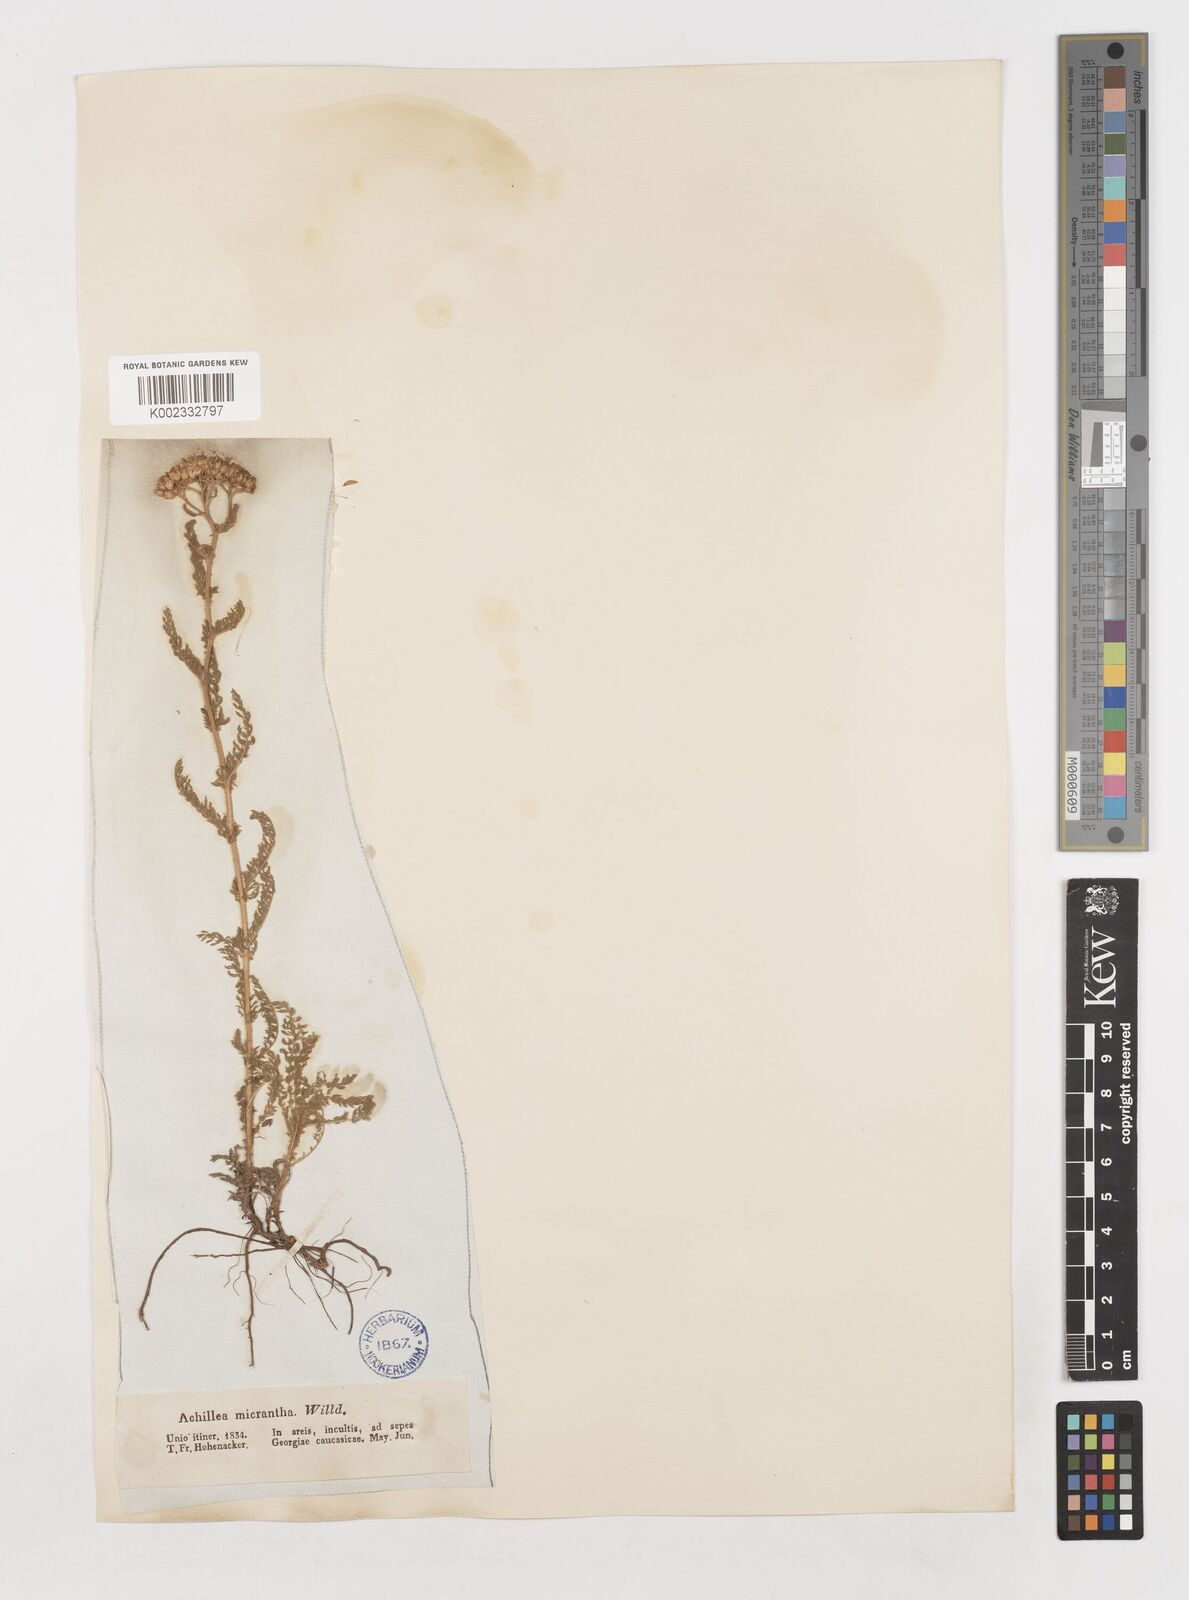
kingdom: Plantae
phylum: Tracheophyta
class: Magnoliopsida
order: Asterales
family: Asteraceae
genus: Achillea
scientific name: Achillea arabica
